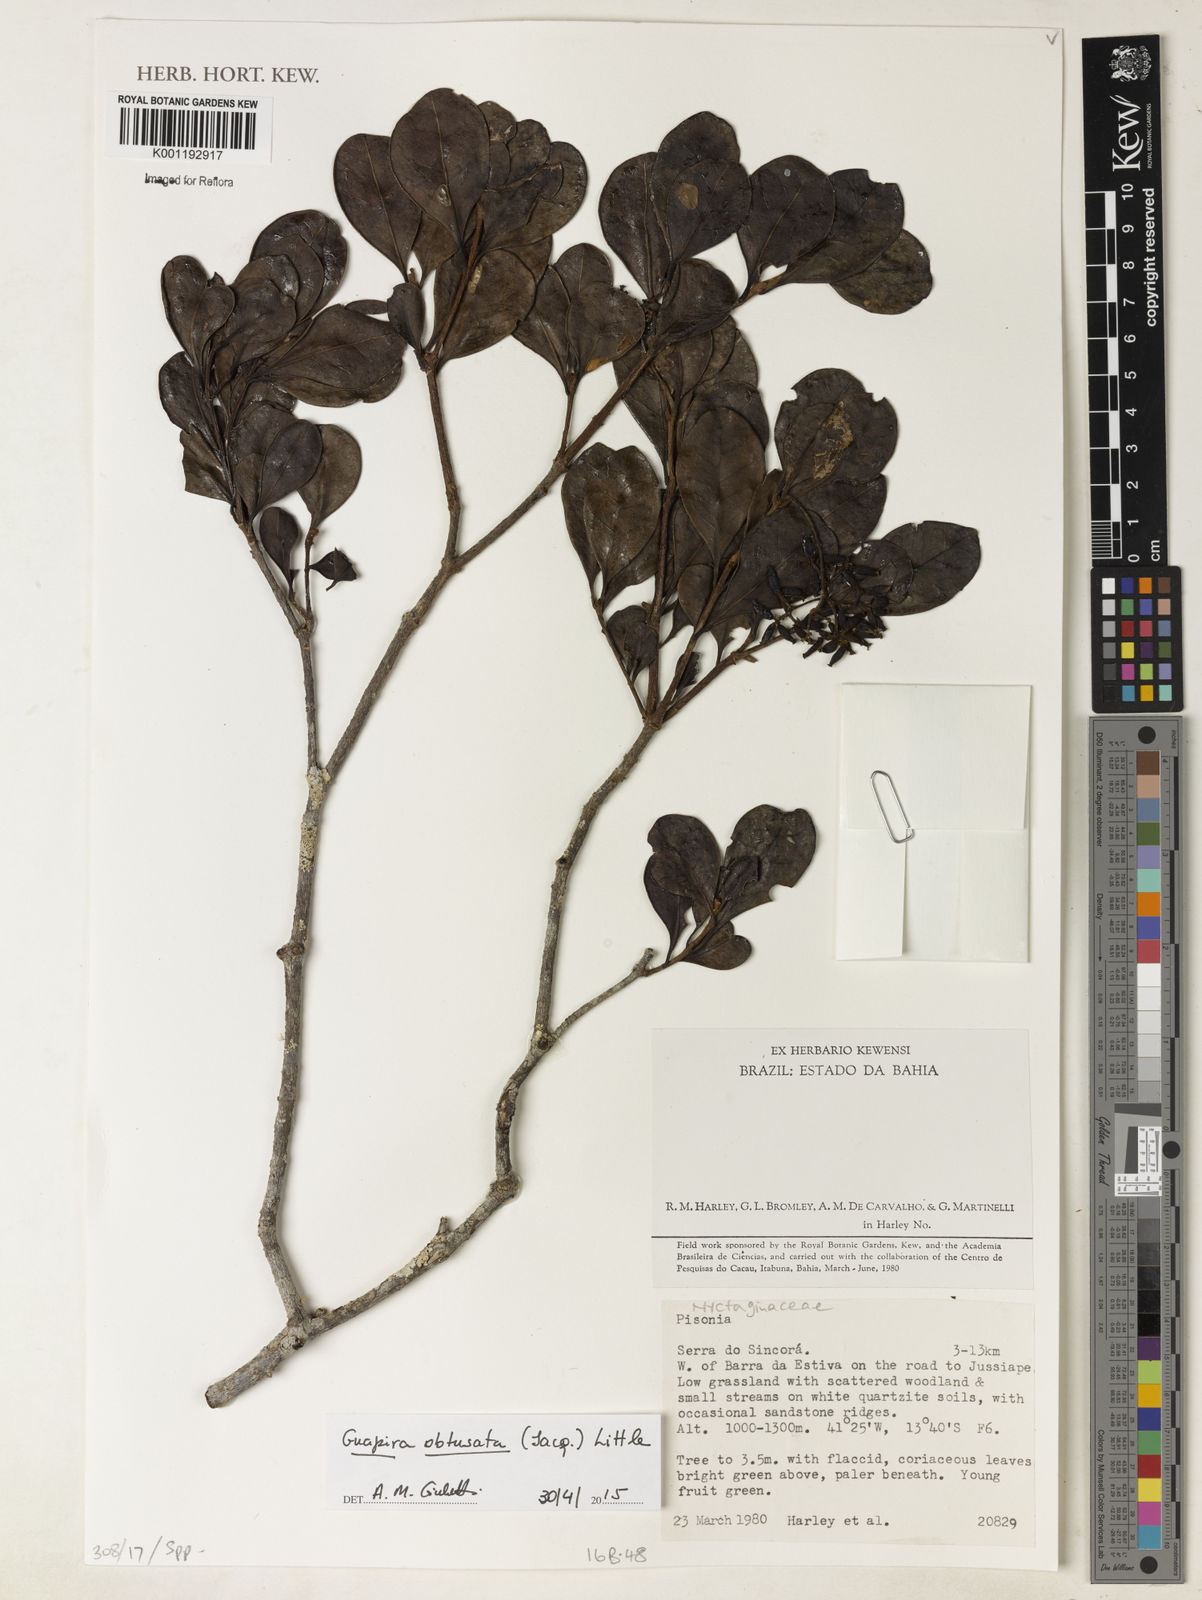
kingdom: Plantae
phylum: Tracheophyta
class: Magnoliopsida
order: Caryophyllales
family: Nyctaginaceae
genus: Guapira
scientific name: Guapira obtusata
